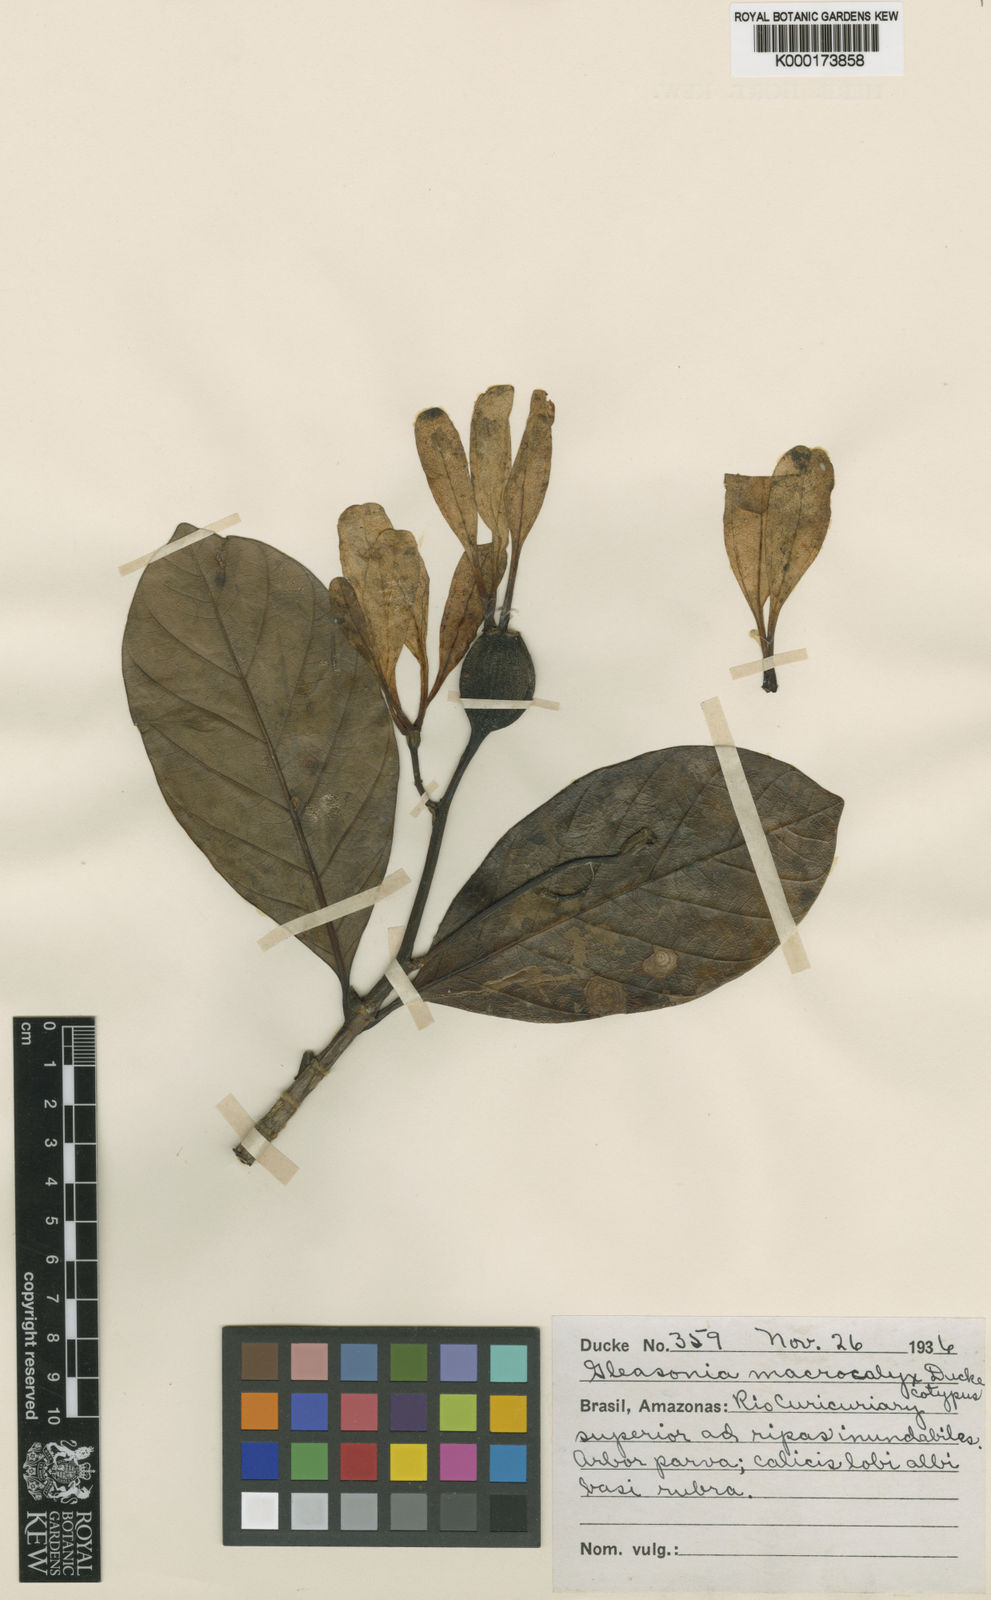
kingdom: Plantae
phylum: Tracheophyta
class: Magnoliopsida
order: Gentianales
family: Rubiaceae
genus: Gleasonia
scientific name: Gleasonia macrocalyx
